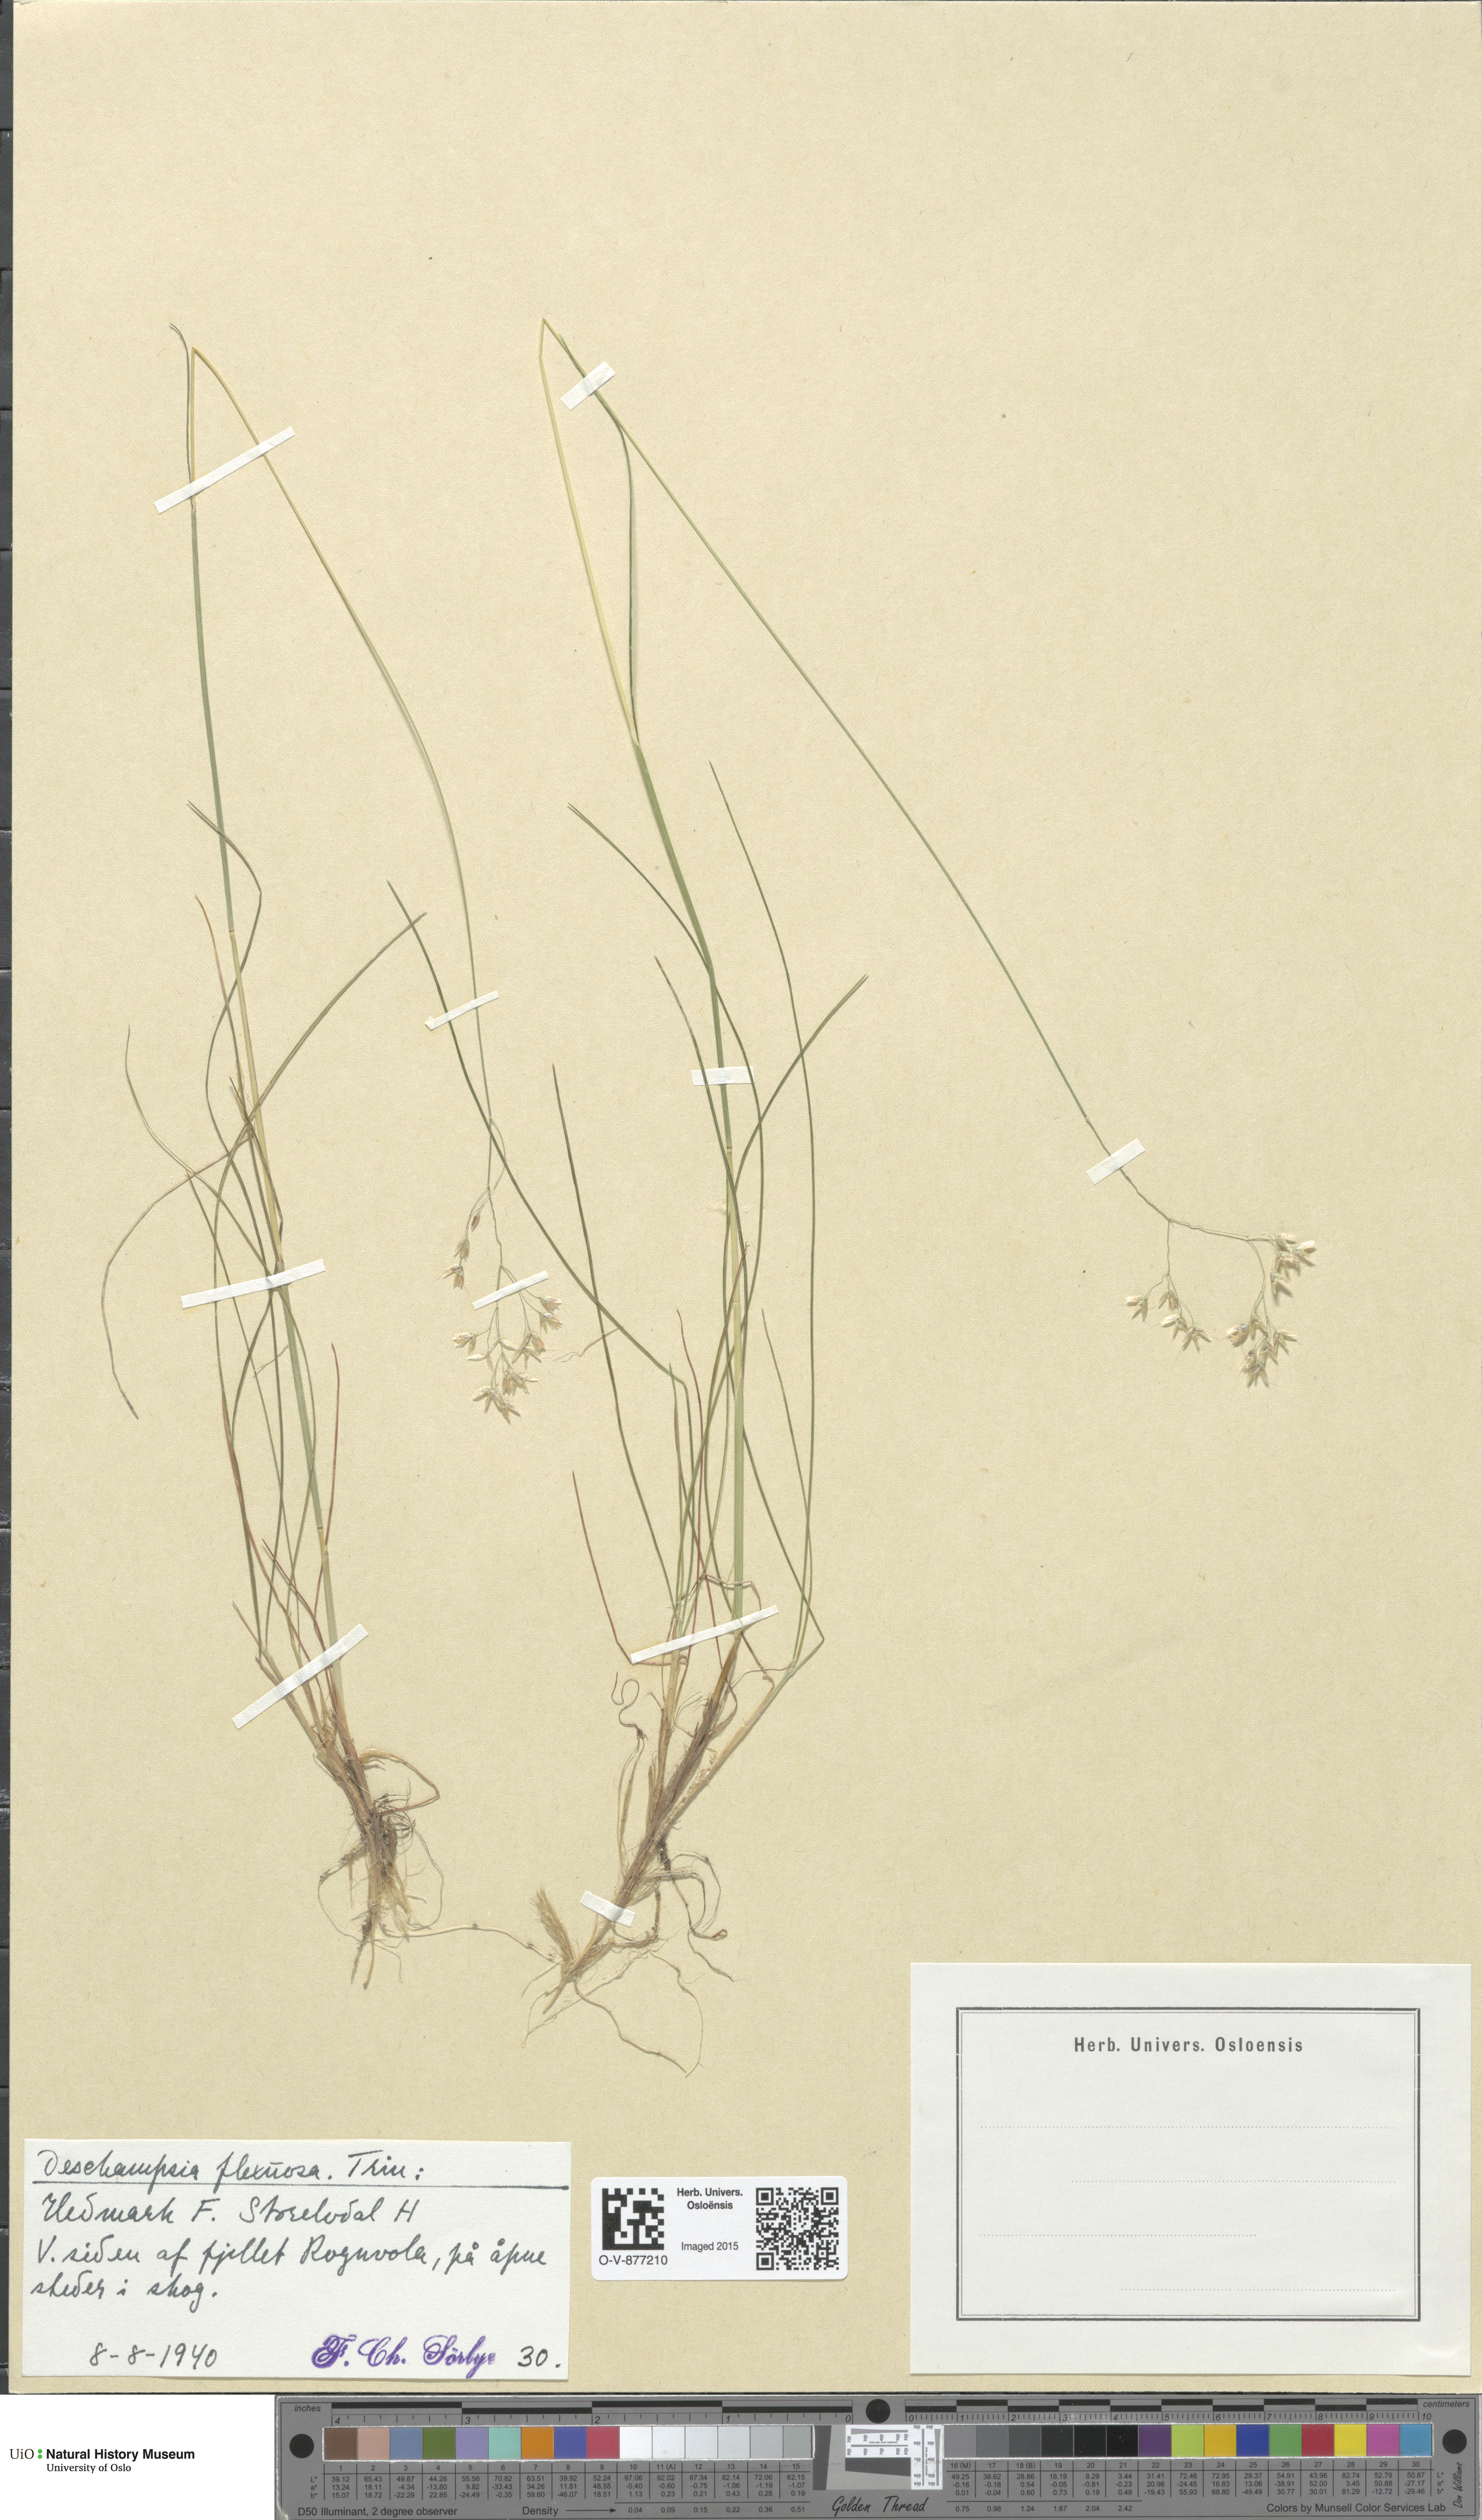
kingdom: Plantae
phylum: Tracheophyta
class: Liliopsida
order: Poales
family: Poaceae
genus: Avenella
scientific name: Avenella flexuosa
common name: Wavy hairgrass
